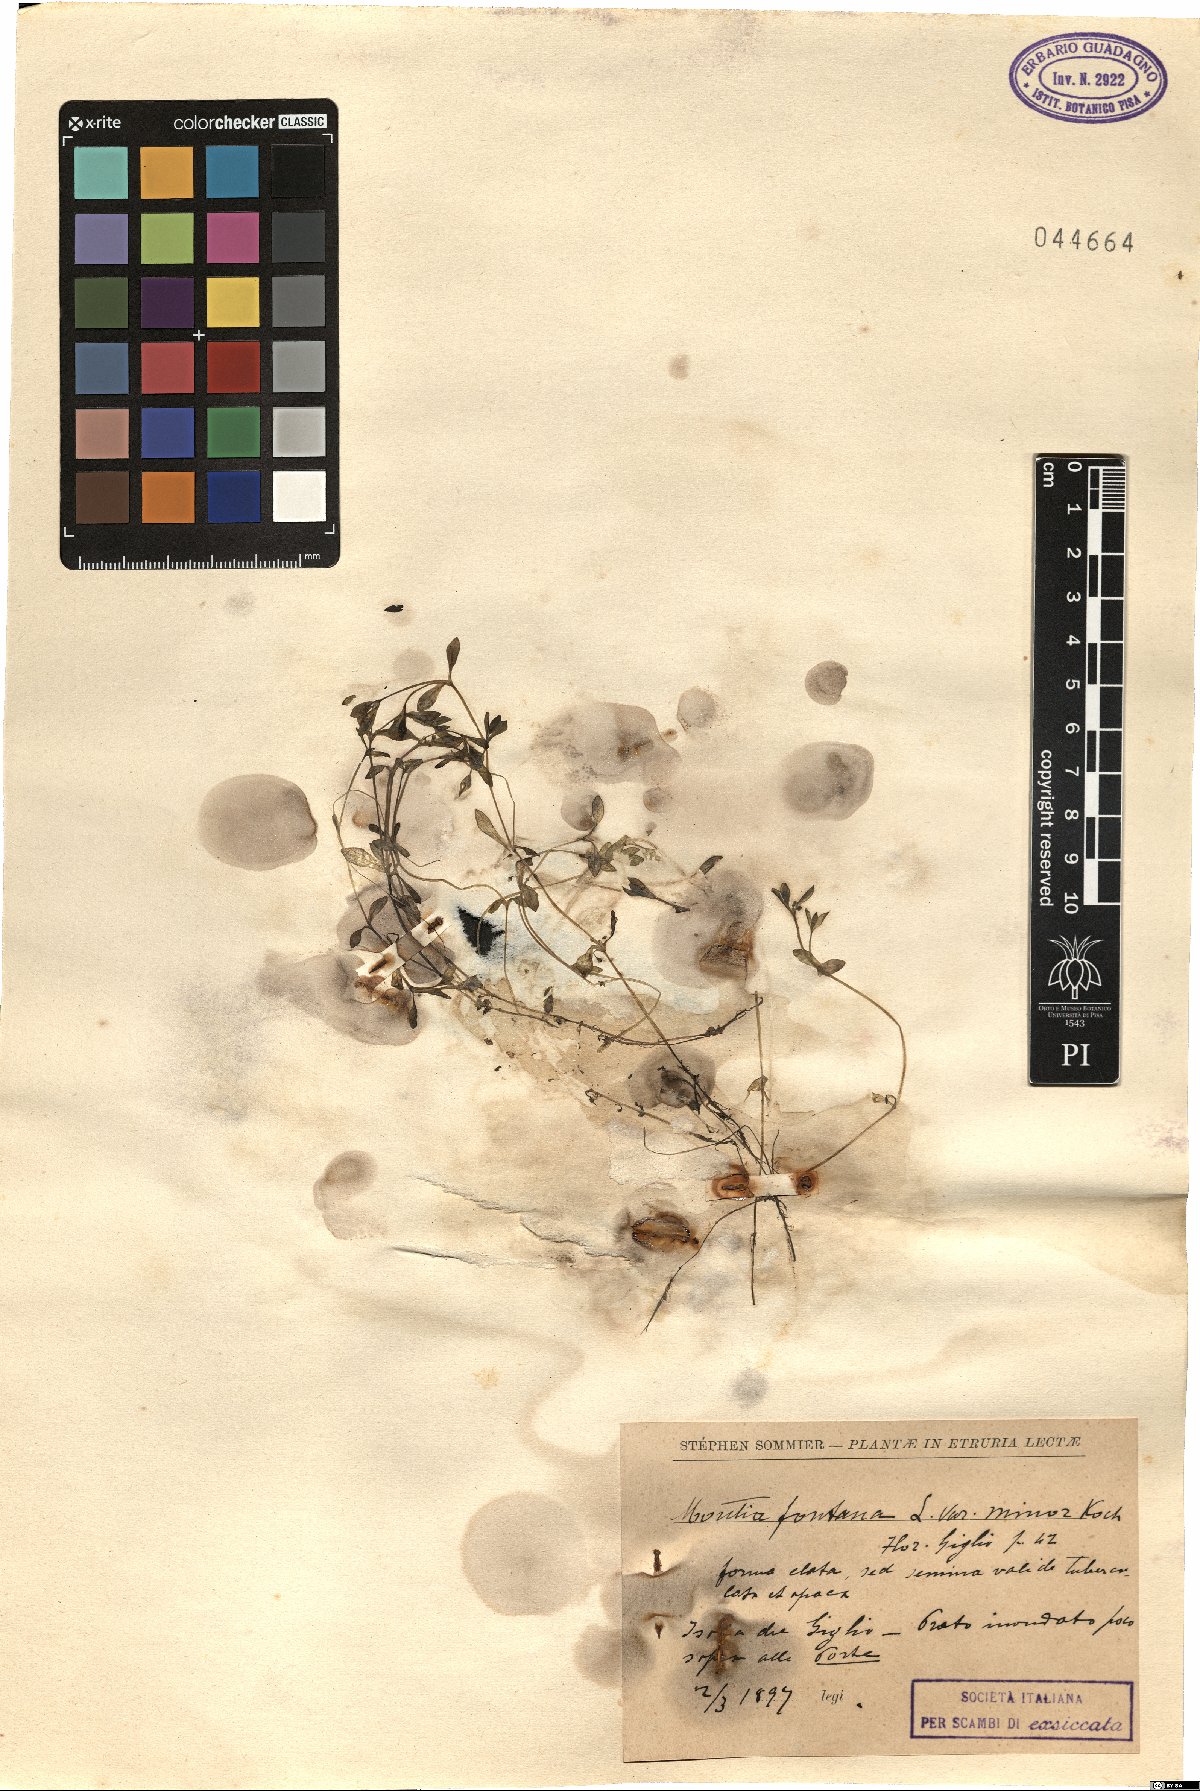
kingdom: Plantae
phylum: Tracheophyta
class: Magnoliopsida
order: Caryophyllales
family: Montiaceae
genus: Montia
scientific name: Montia fontana
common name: Blinks
